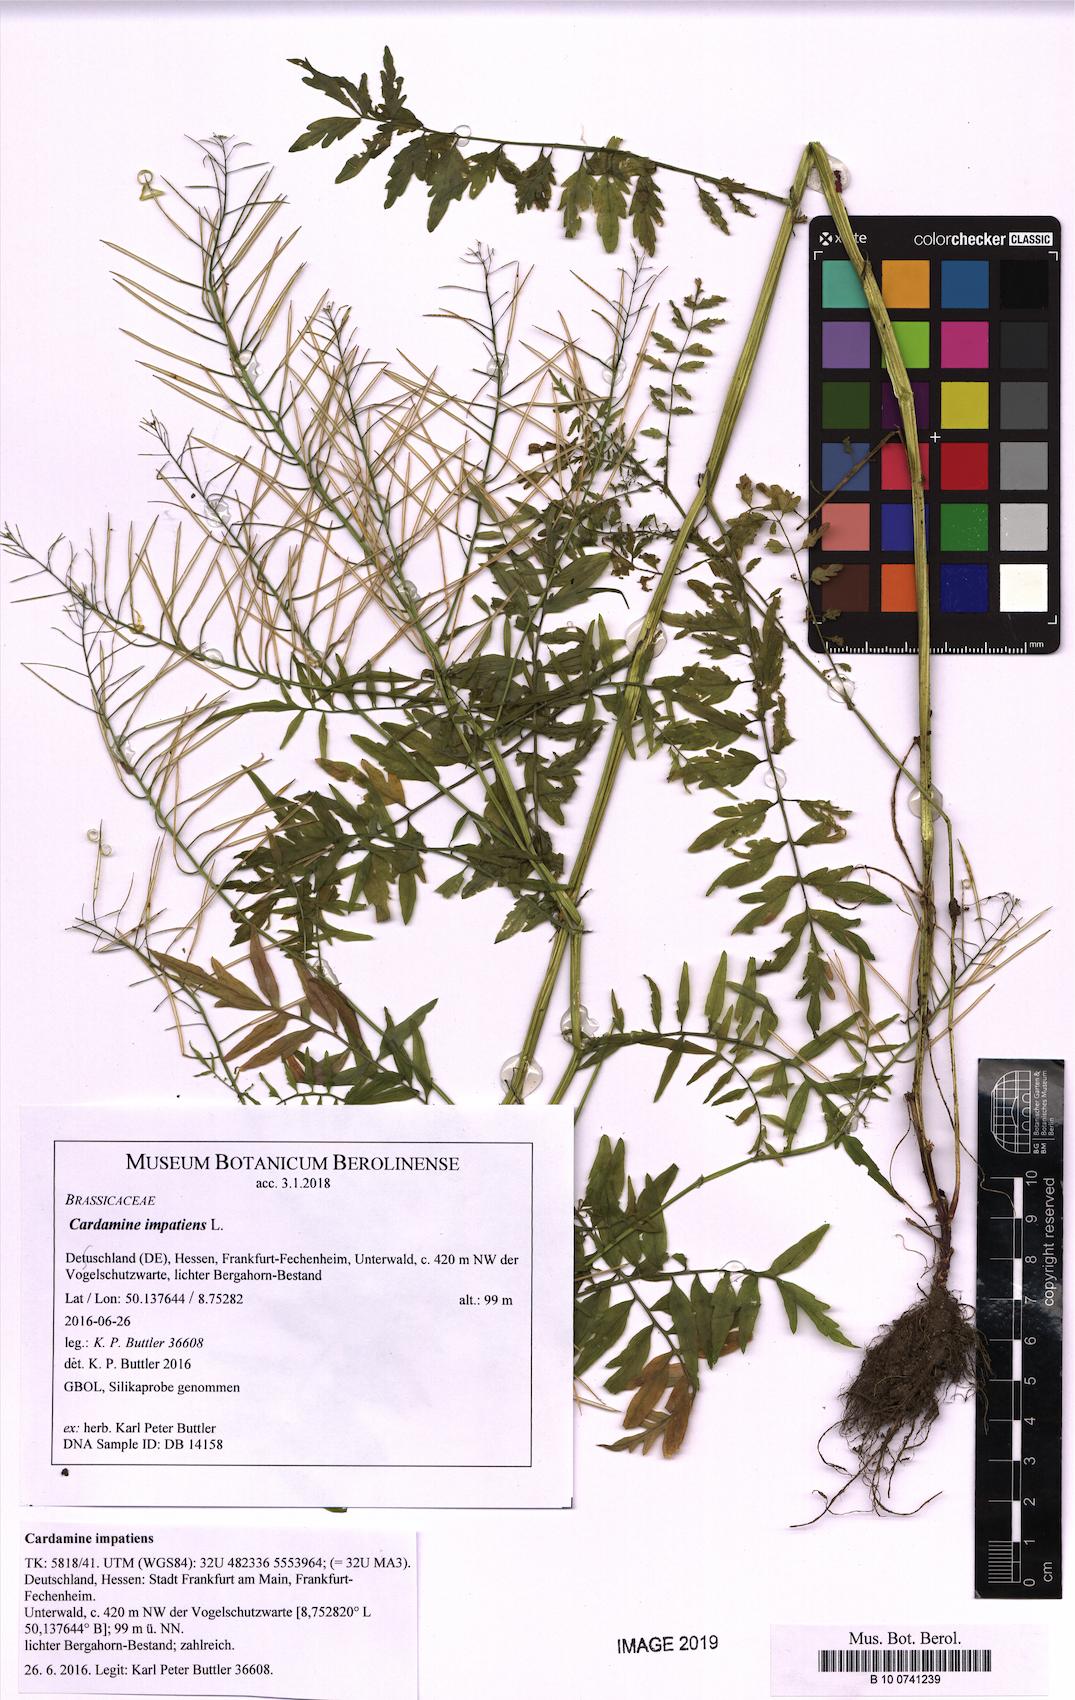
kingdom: Plantae
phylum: Tracheophyta
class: Magnoliopsida
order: Brassicales
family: Brassicaceae
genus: Cardamine
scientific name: Cardamine impatiens
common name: Narrow-leaved bitter-cress
